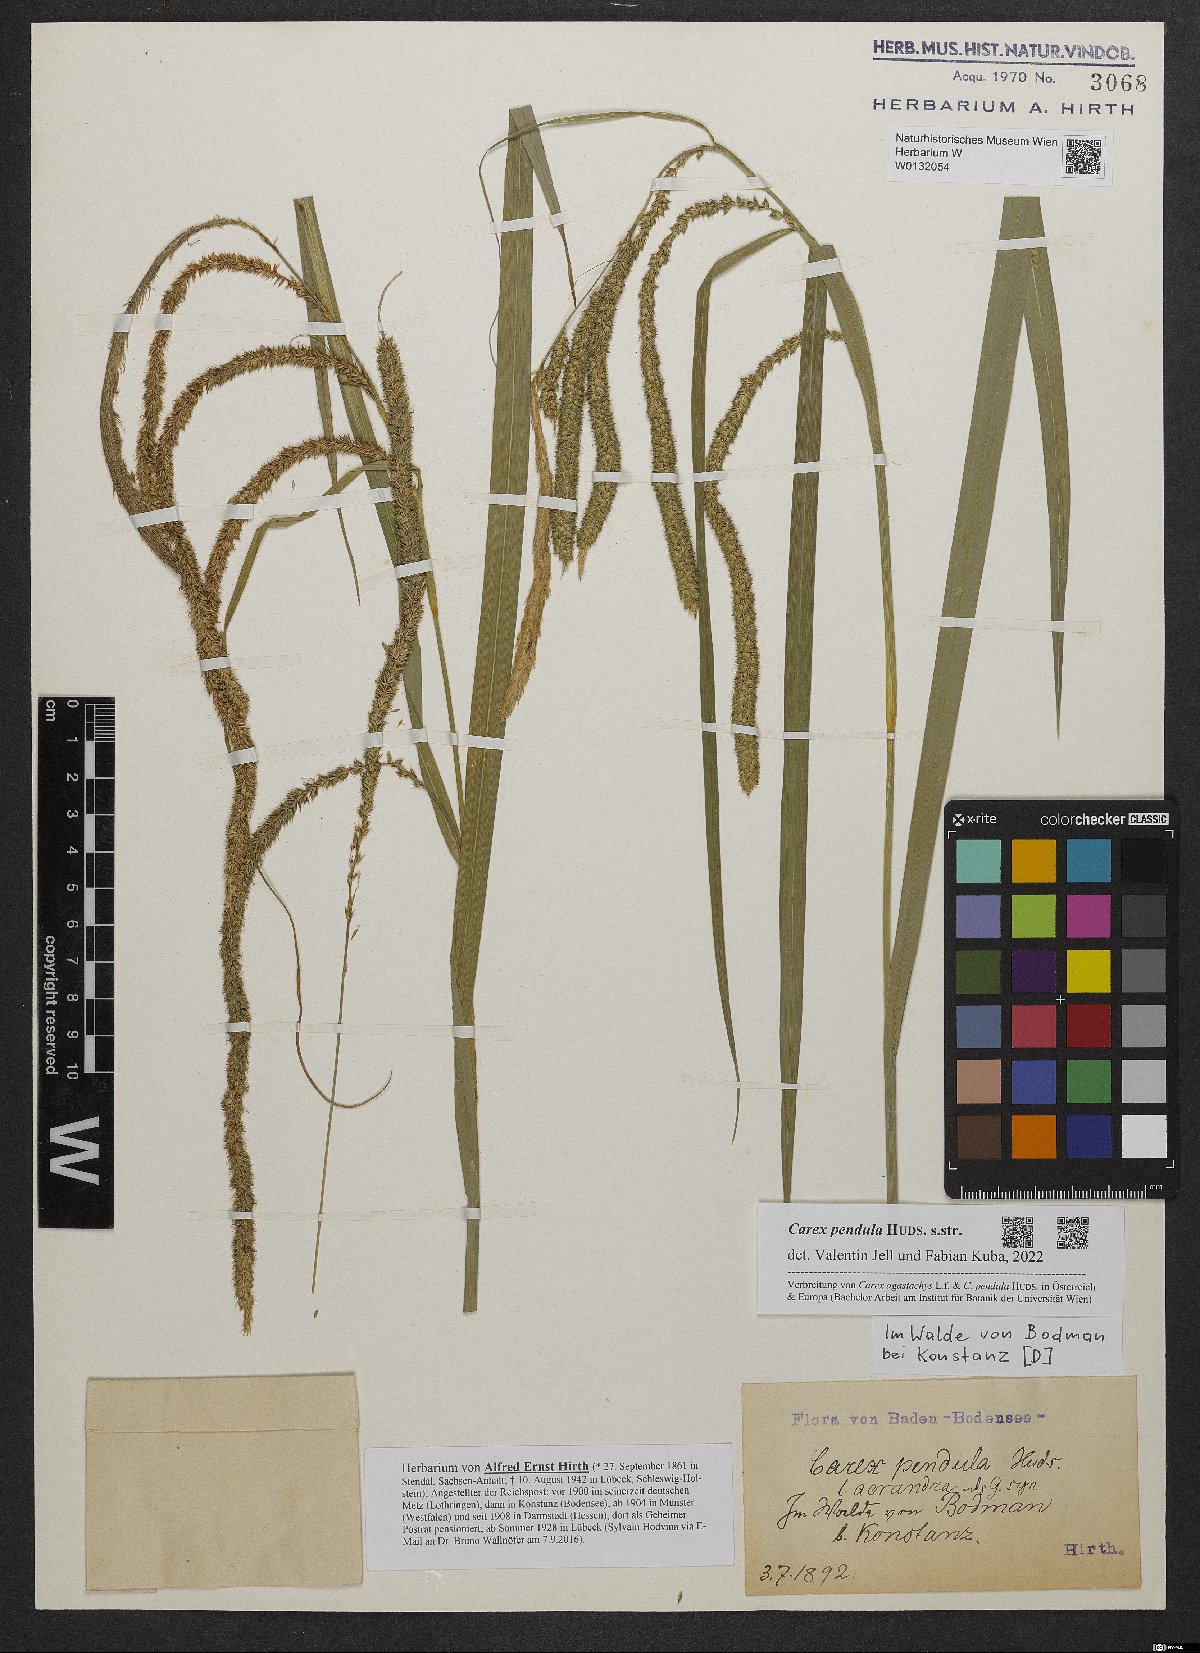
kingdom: Plantae
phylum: Tracheophyta
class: Liliopsida
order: Poales
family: Cyperaceae
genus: Carex
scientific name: Carex pendula
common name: Pendulous sedge
